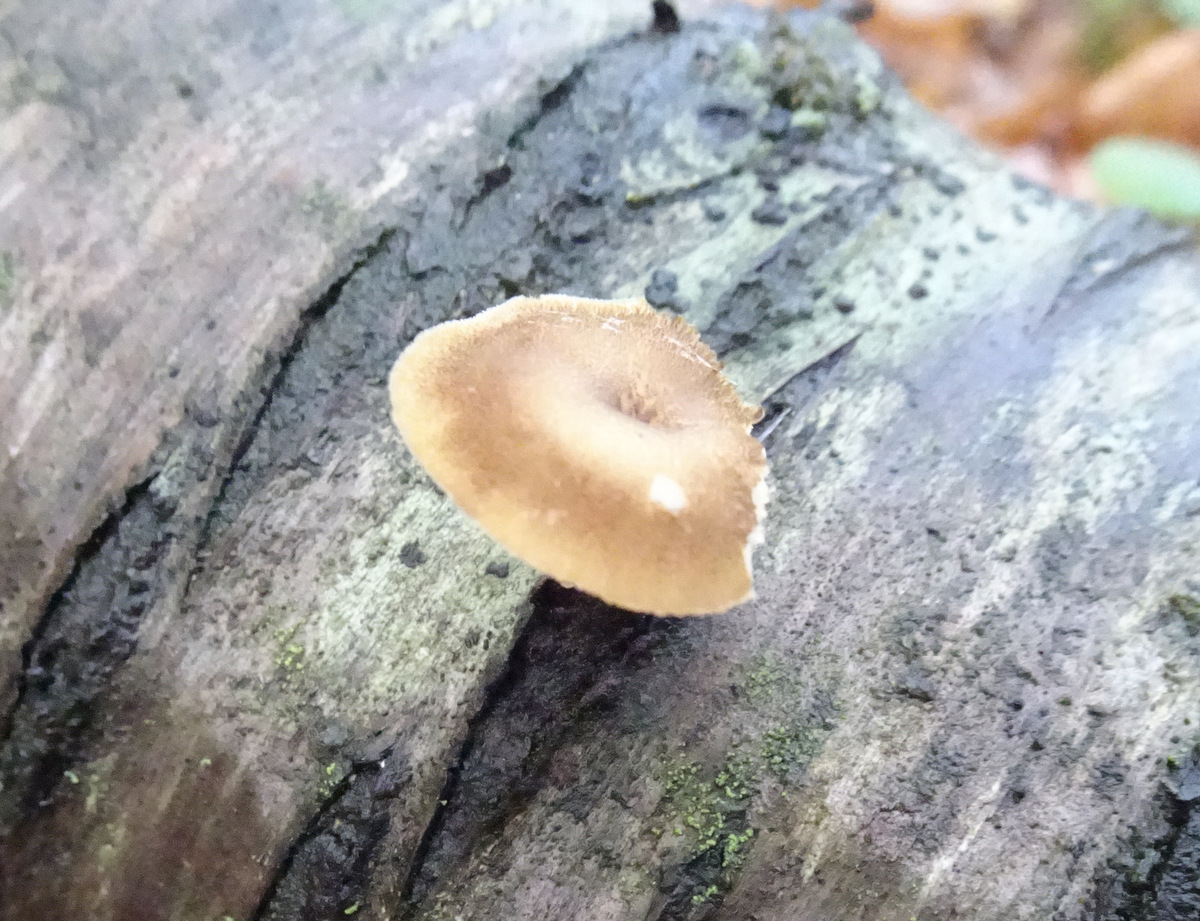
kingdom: Fungi
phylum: Basidiomycota
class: Agaricomycetes
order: Polyporales
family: Polyporaceae
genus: Lentinus
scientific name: Lentinus brumalis
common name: vinter-stilkporesvamp
